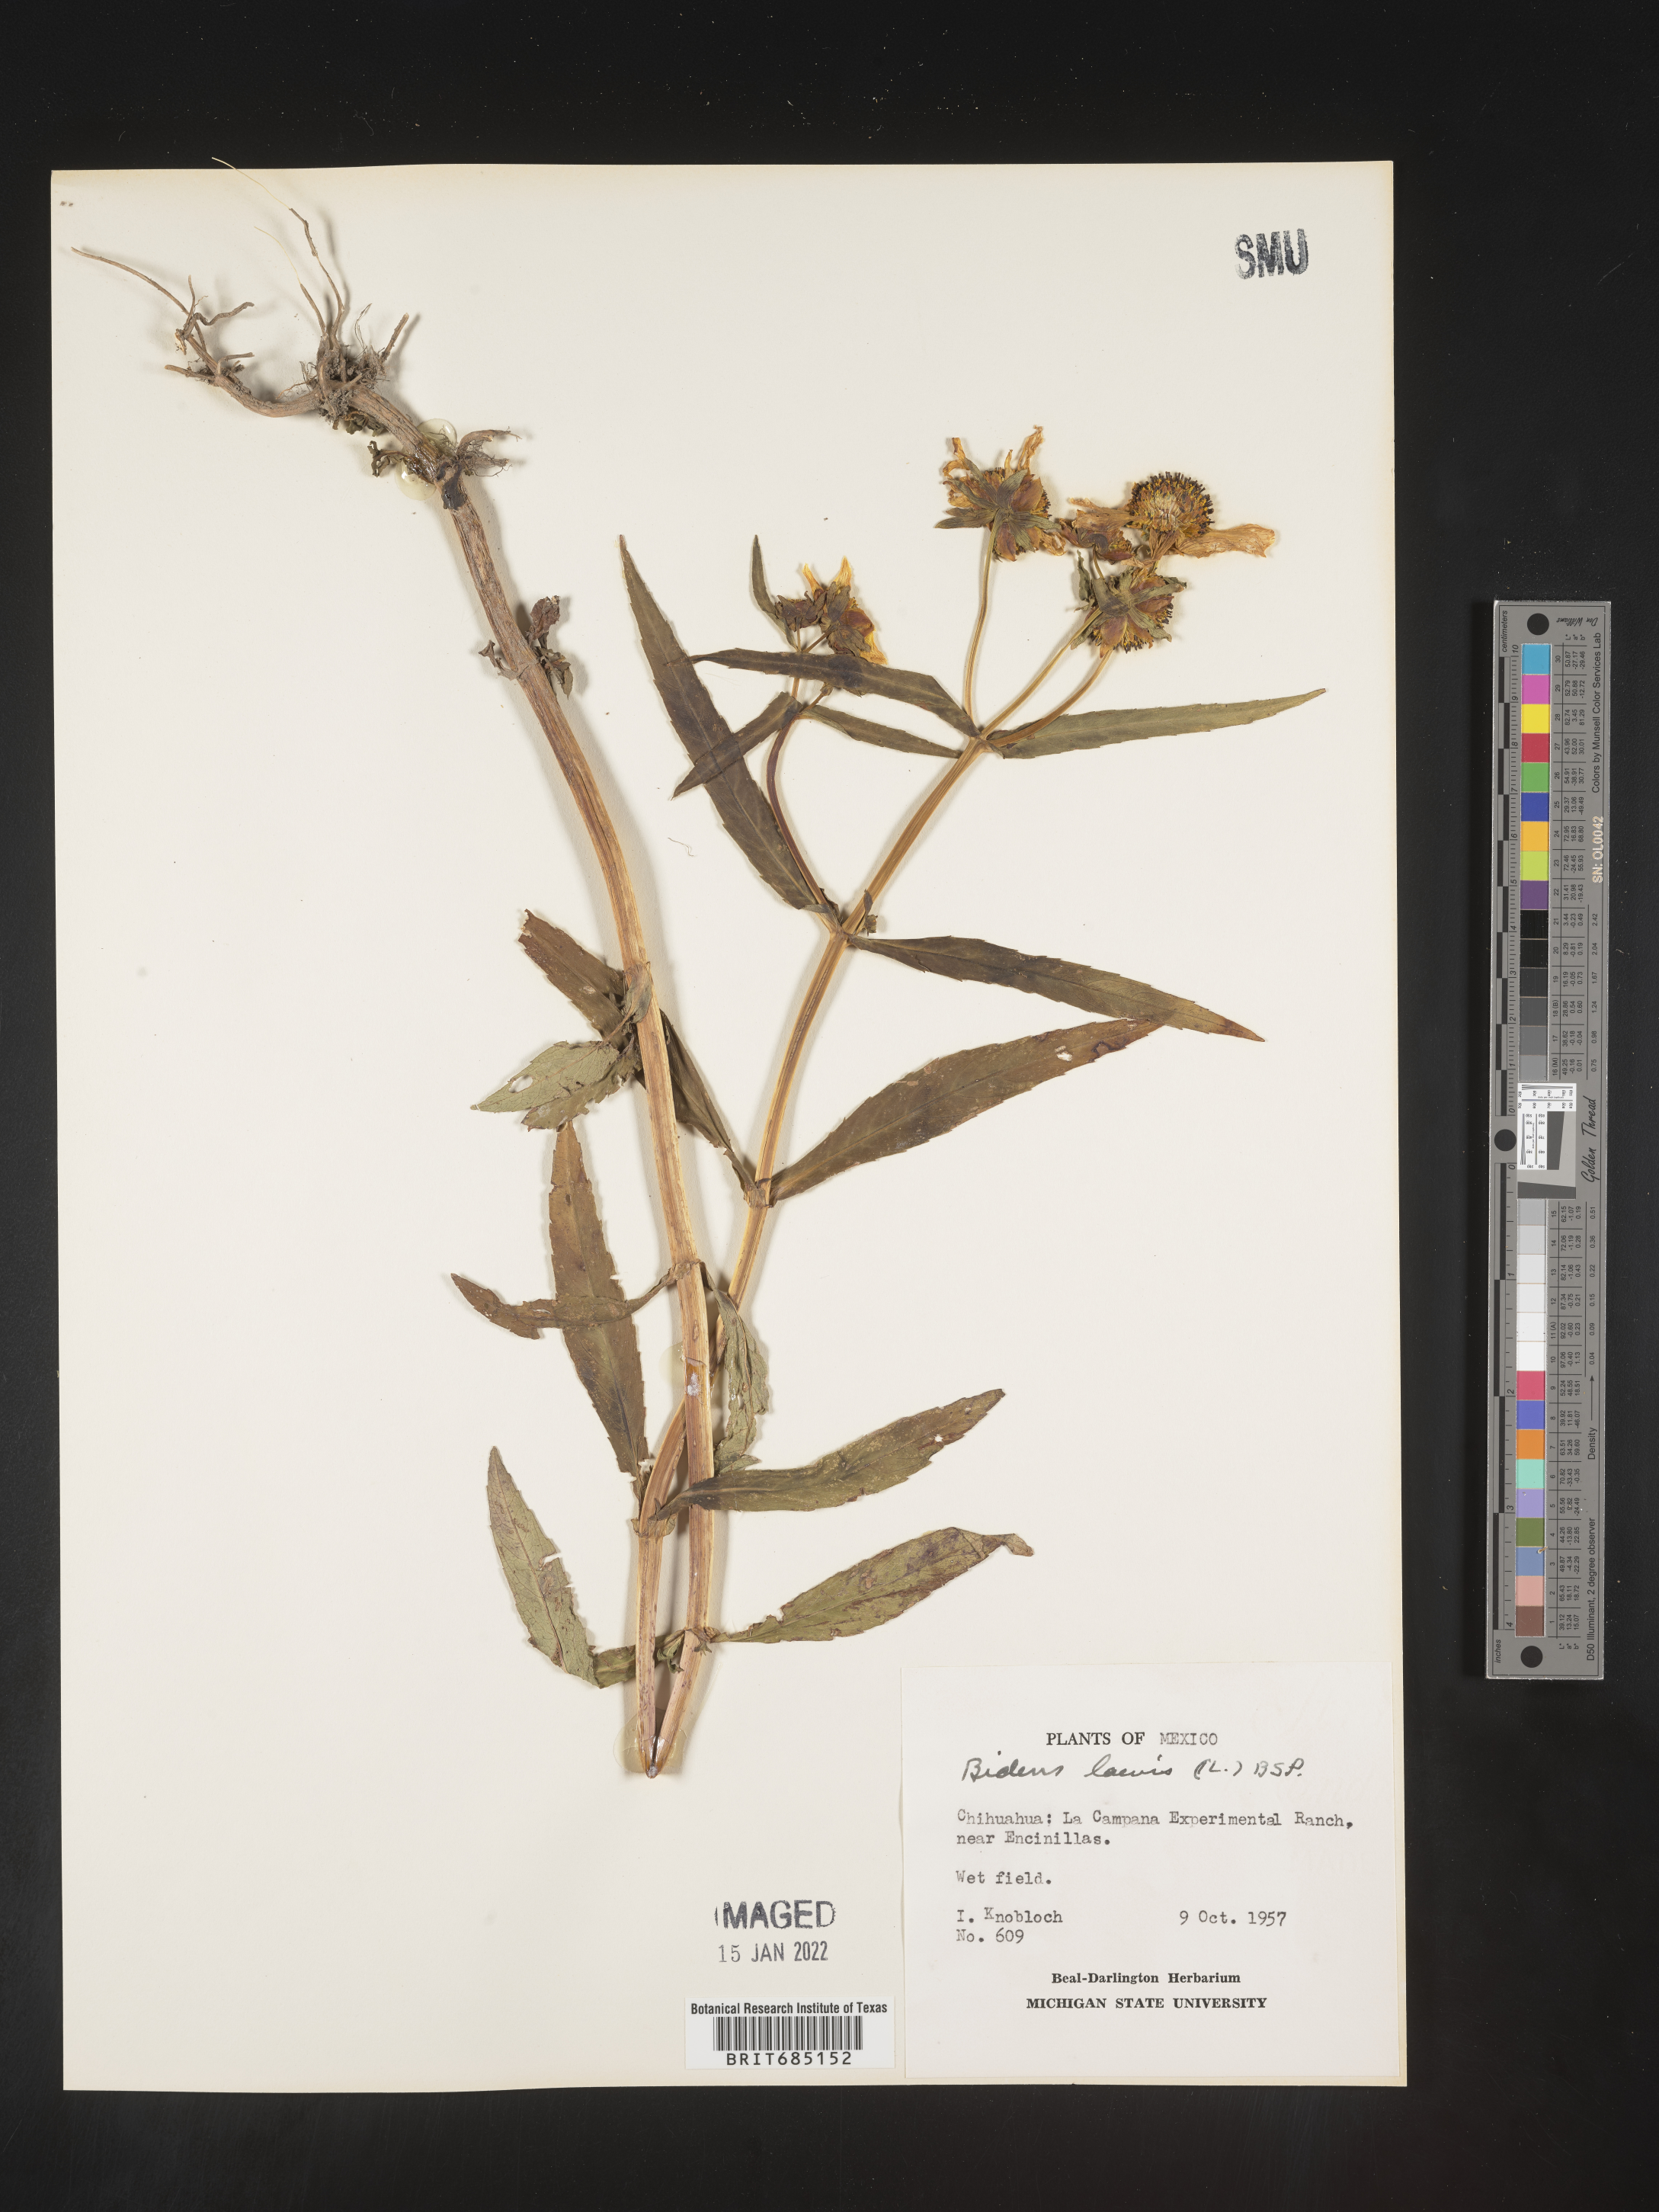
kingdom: Plantae
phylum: Tracheophyta
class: Magnoliopsida
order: Asterales
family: Asteraceae
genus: Bidens
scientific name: Bidens
